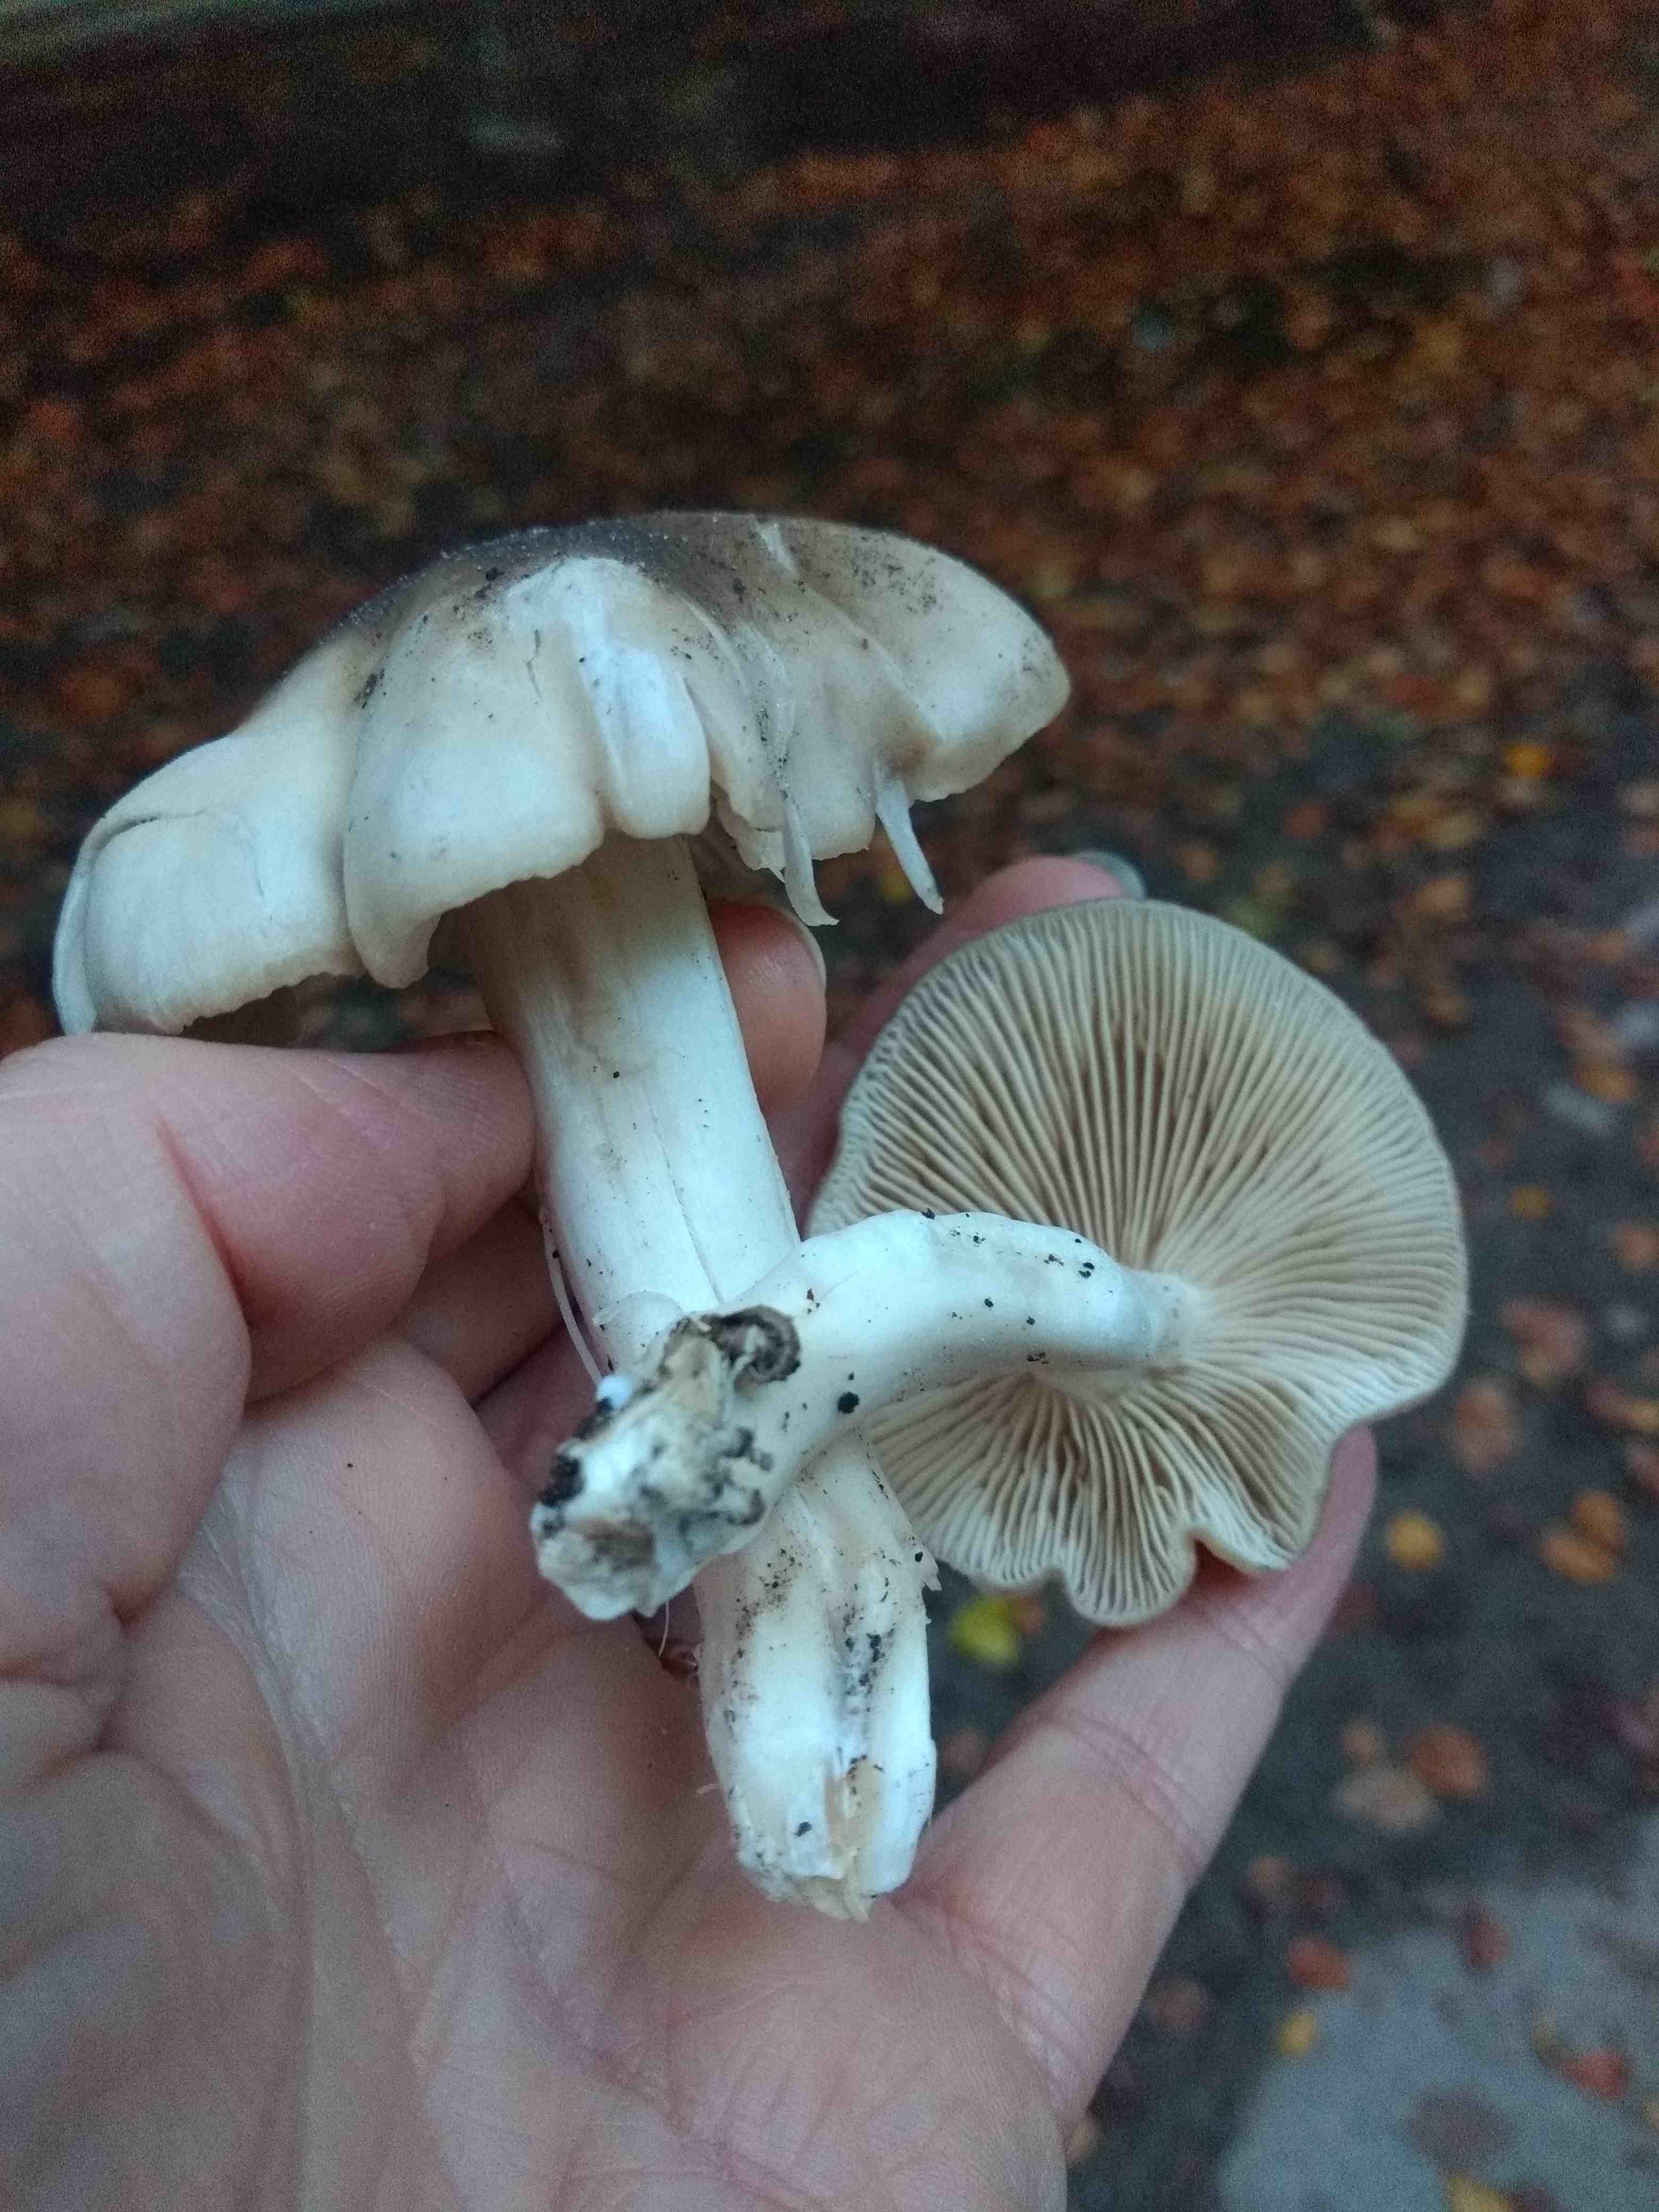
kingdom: Fungi
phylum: Basidiomycota
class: Agaricomycetes
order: Agaricales
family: Tricholomataceae
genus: Tricholoma
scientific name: Tricholoma scalpturatum
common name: gulplettet ridderhat
